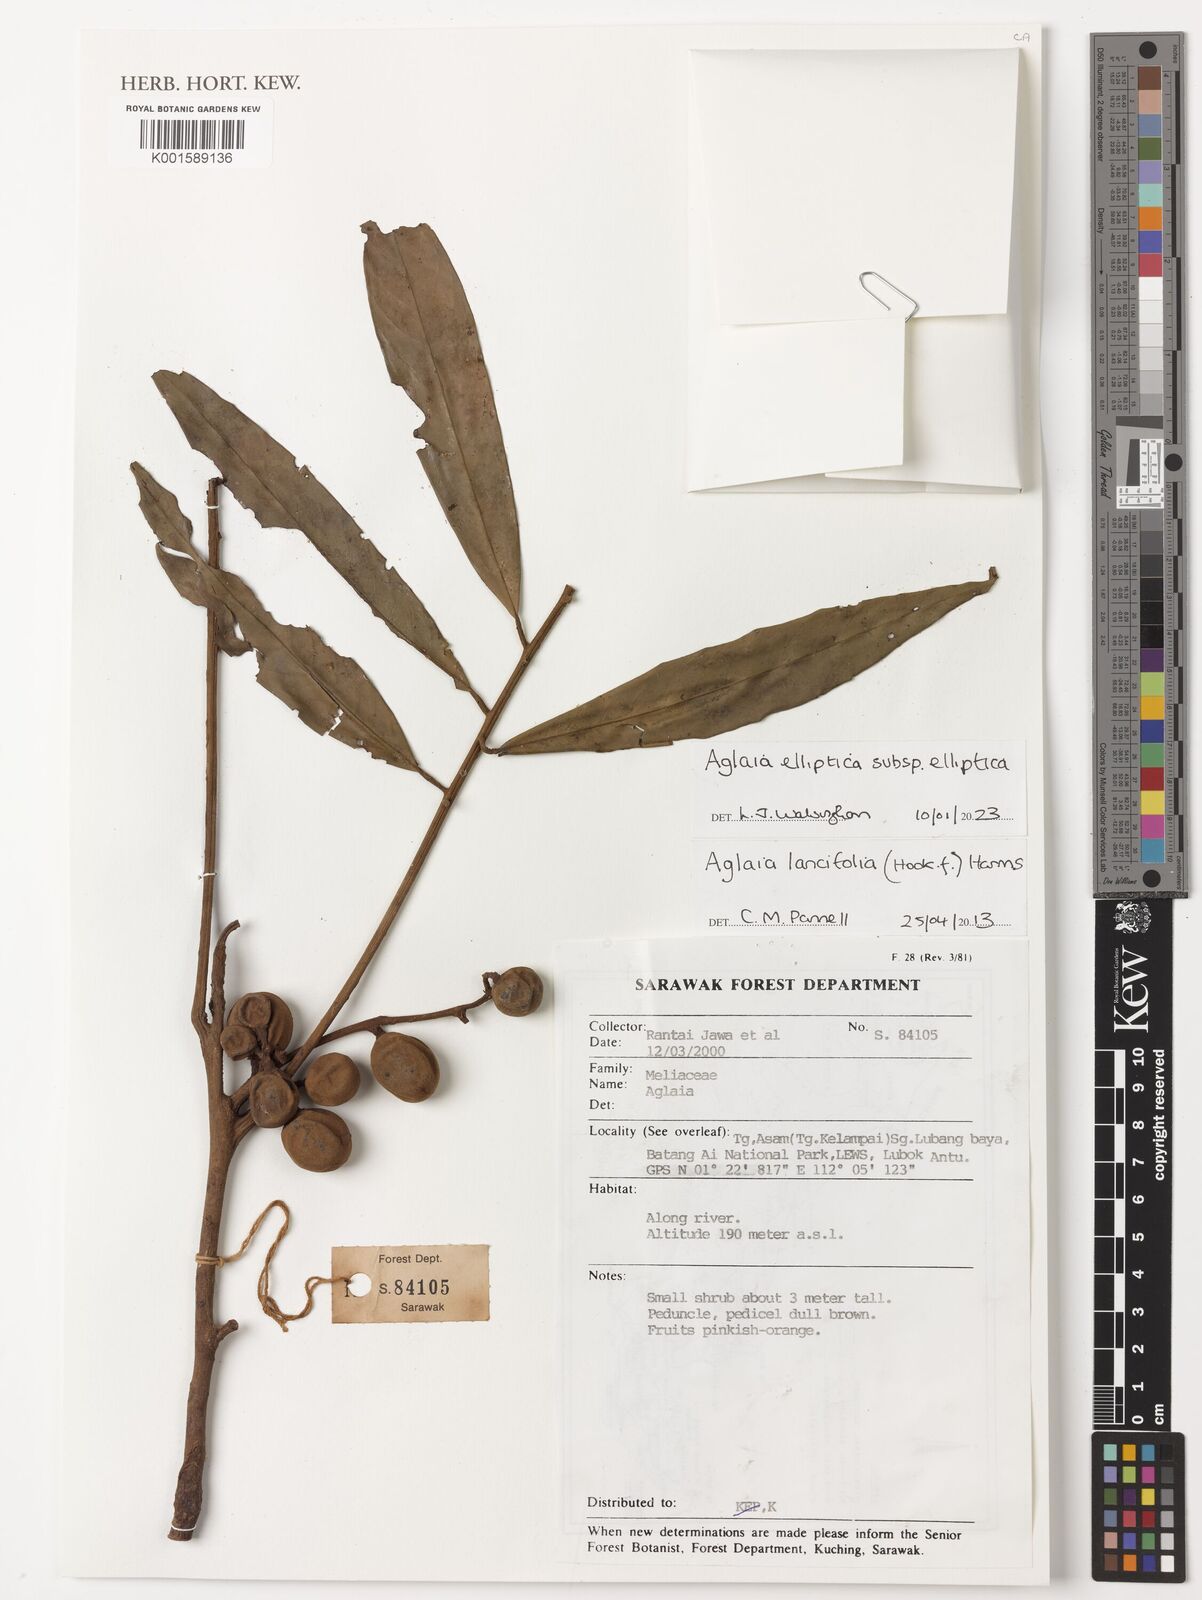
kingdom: Plantae
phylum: Tracheophyta
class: Magnoliopsida
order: Sapindales
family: Meliaceae
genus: Aglaia
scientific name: Aglaia elliptica
